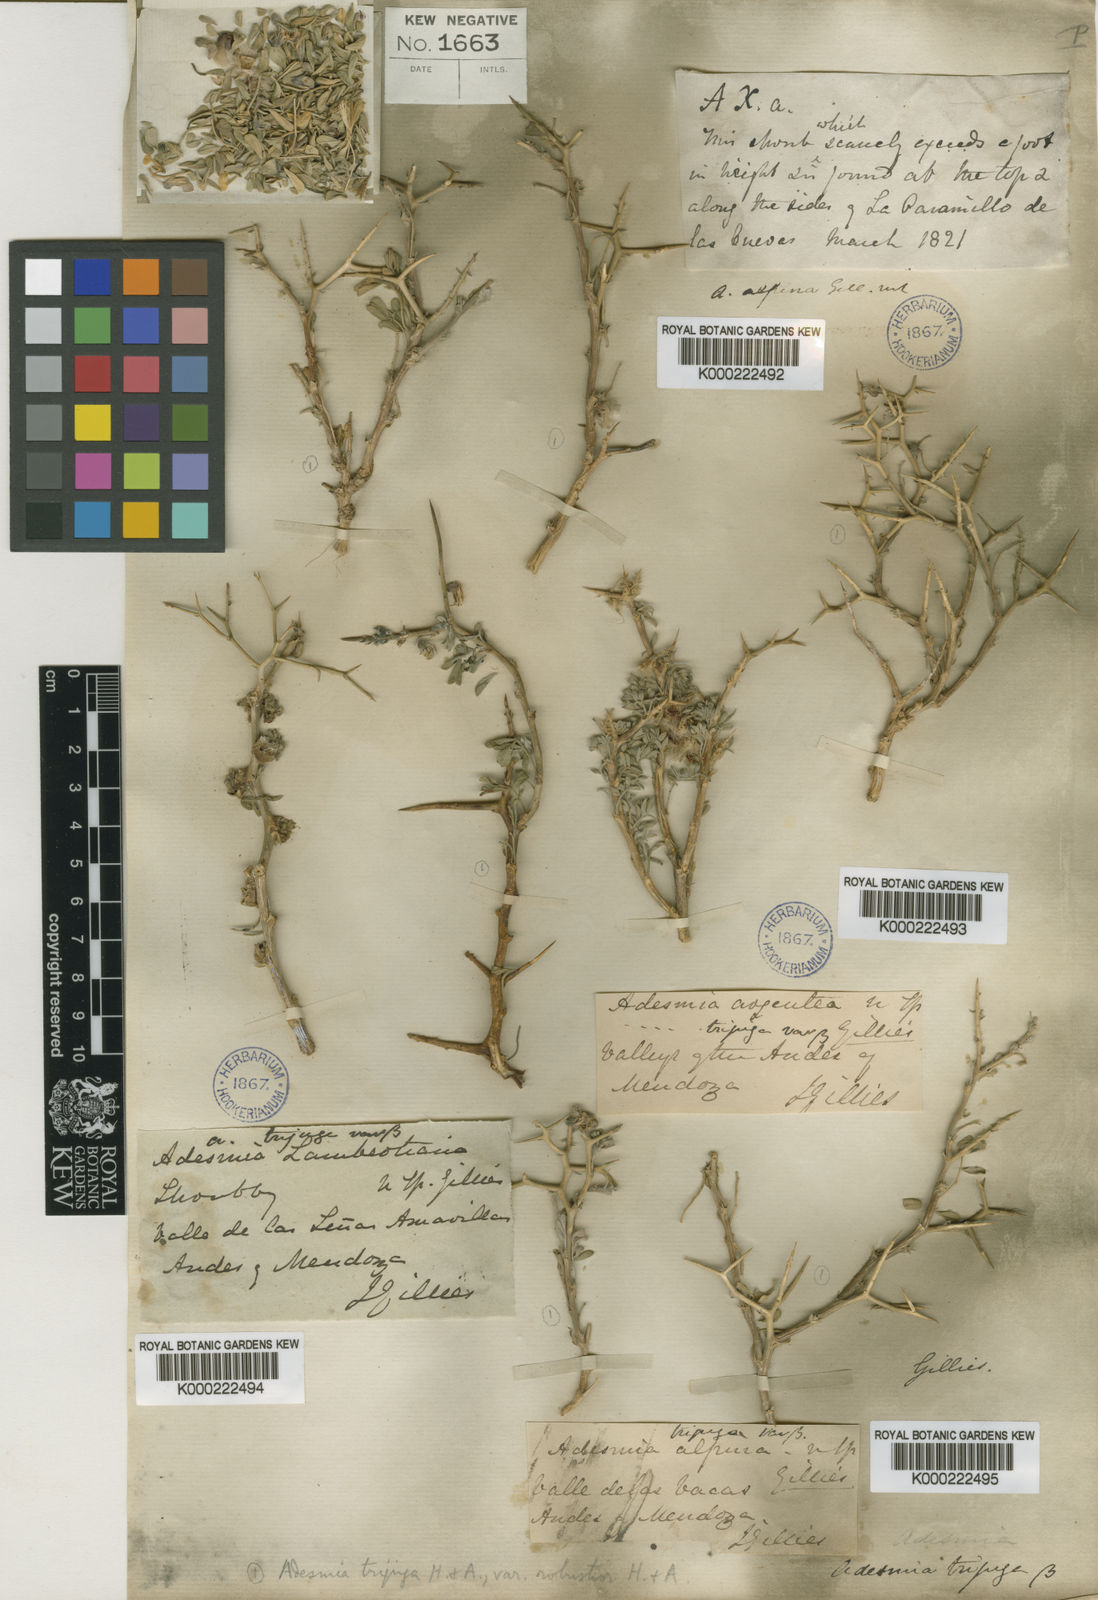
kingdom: Plantae
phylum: Tracheophyta
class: Magnoliopsida
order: Fabales
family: Fabaceae
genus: Adesmia
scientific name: Adesmia trijuga
